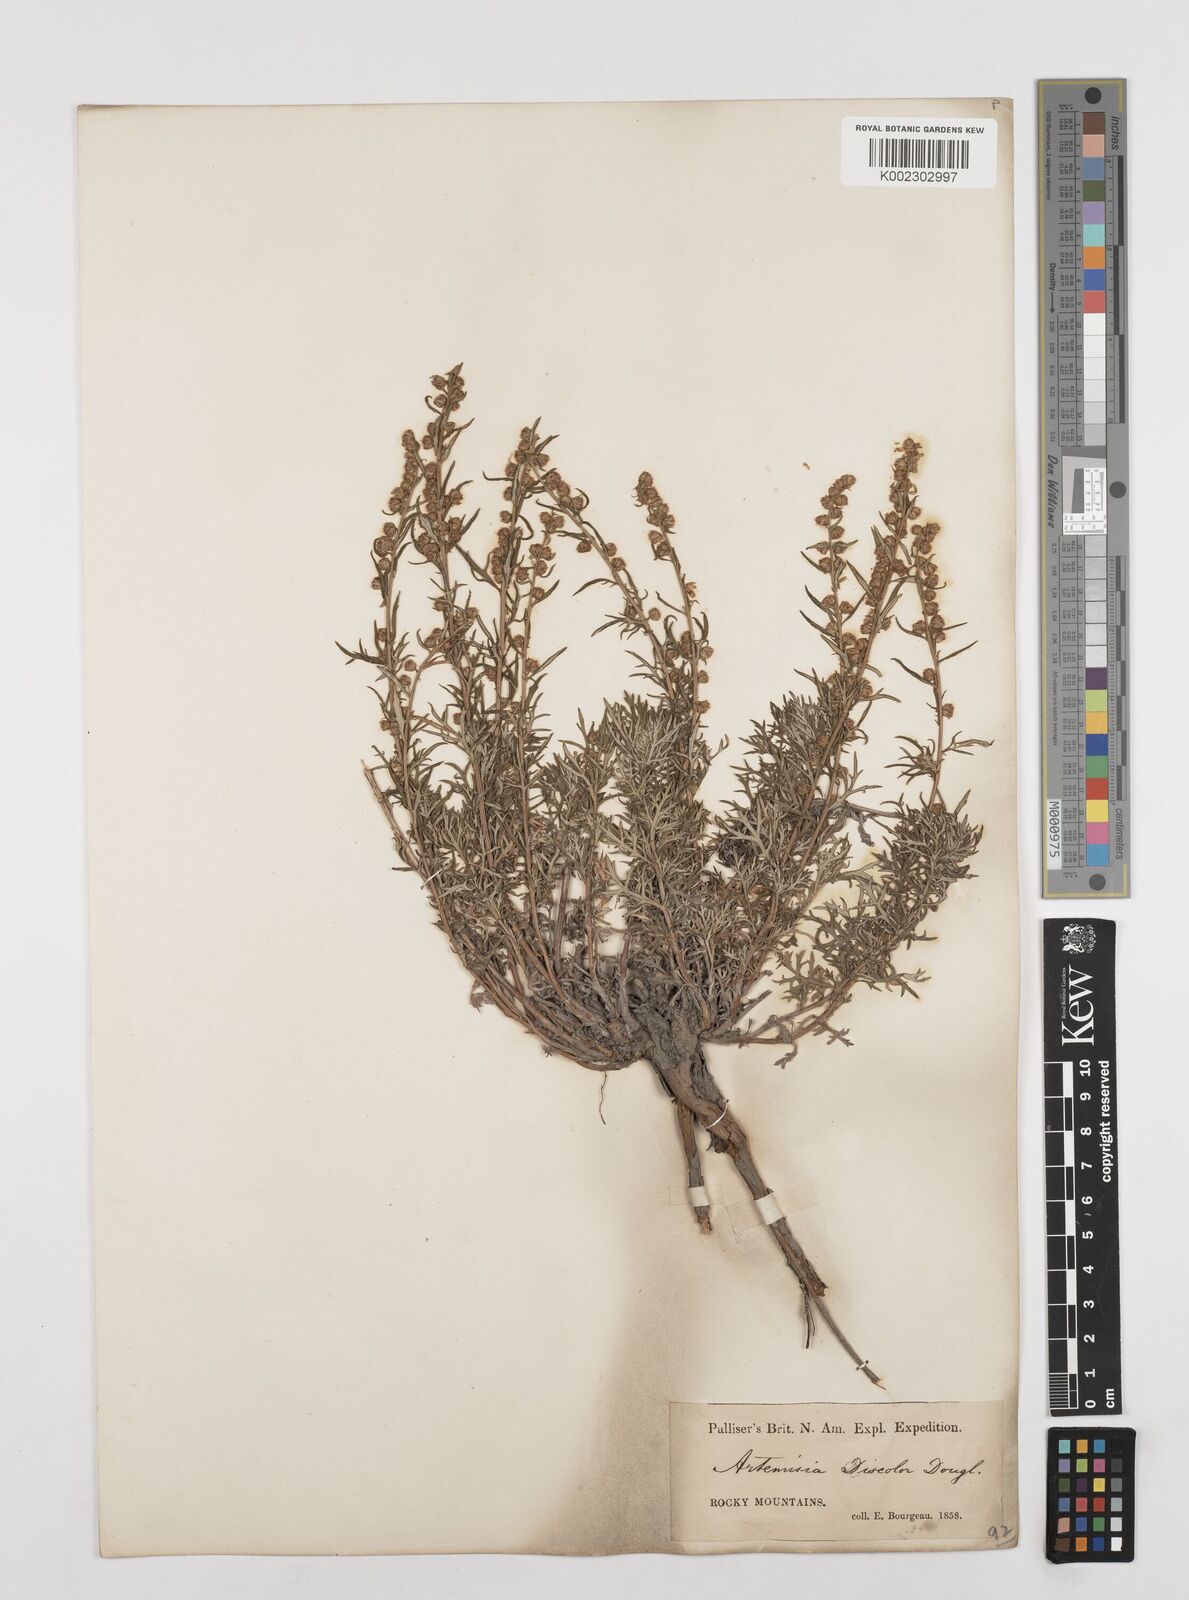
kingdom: Plantae
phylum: Tracheophyta
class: Magnoliopsida
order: Asterales
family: Asteraceae
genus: Artemisia
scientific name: Artemisia michauxiana
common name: Lemon sagewort
